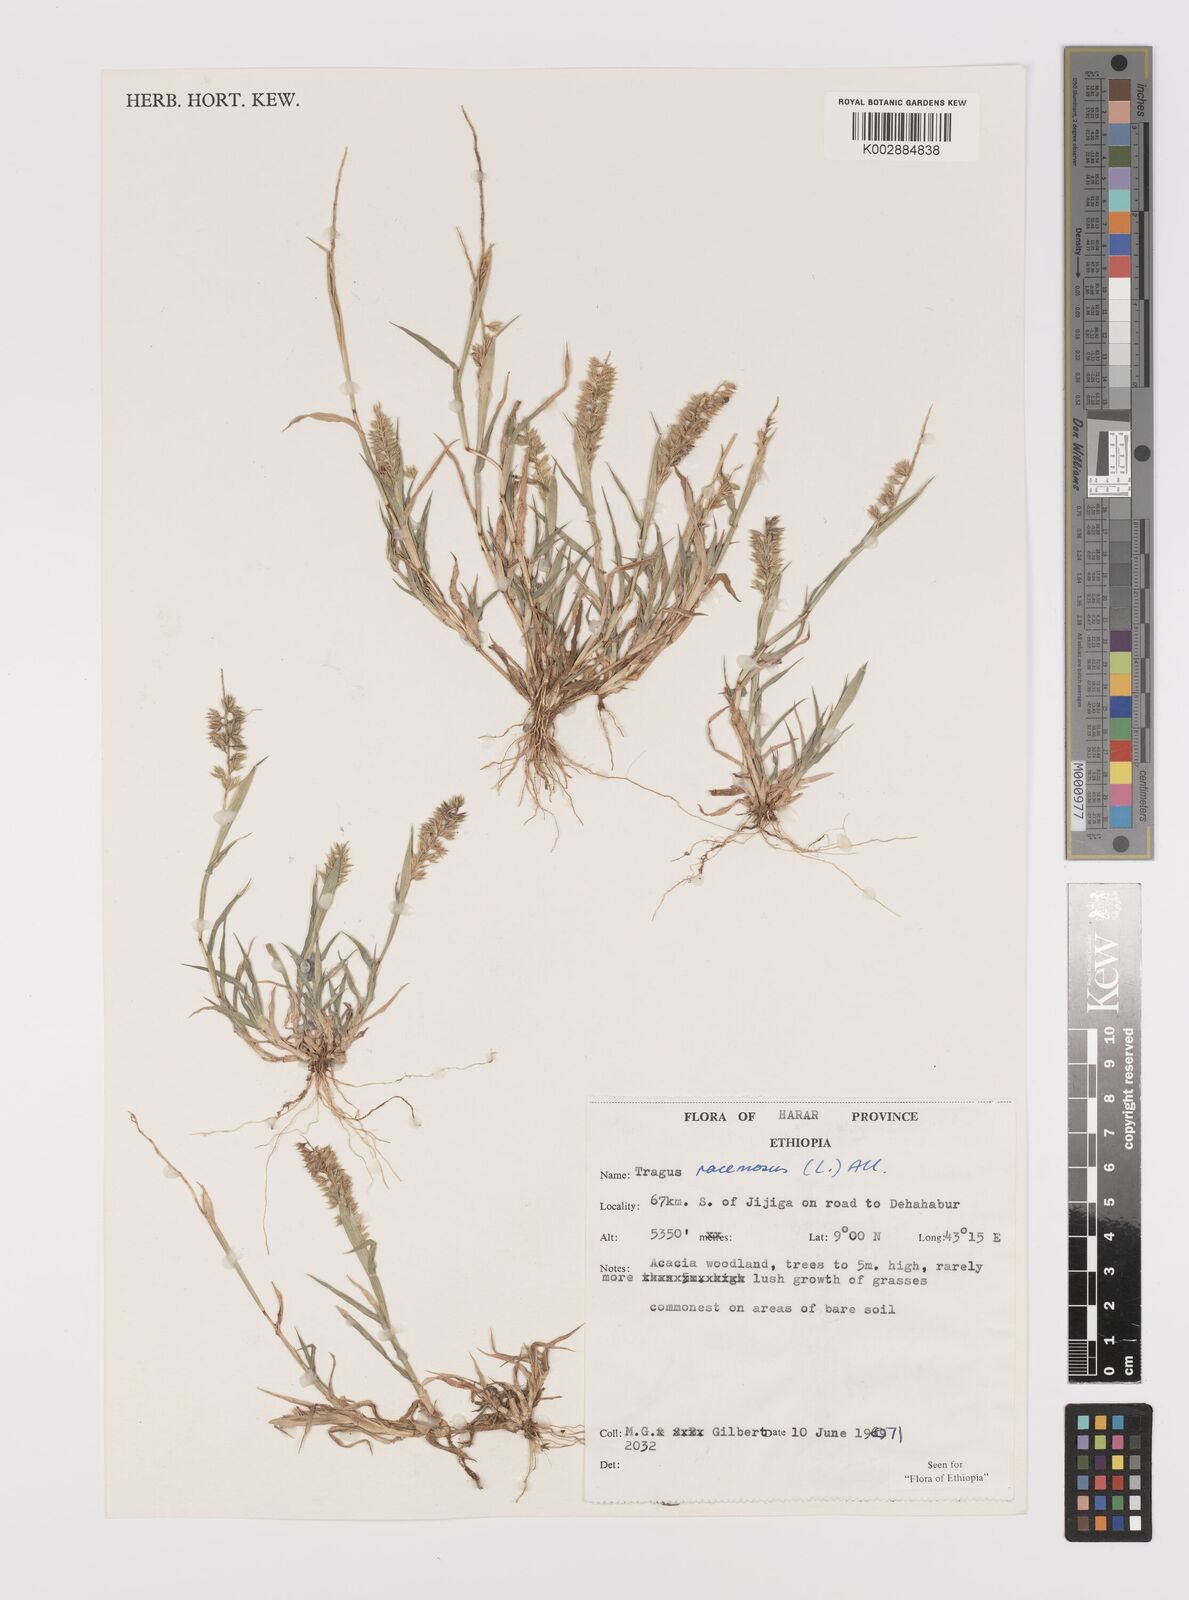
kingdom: Plantae
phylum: Tracheophyta
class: Liliopsida
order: Poales
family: Poaceae
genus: Tragus
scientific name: Tragus racemosus
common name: European bur-grass
